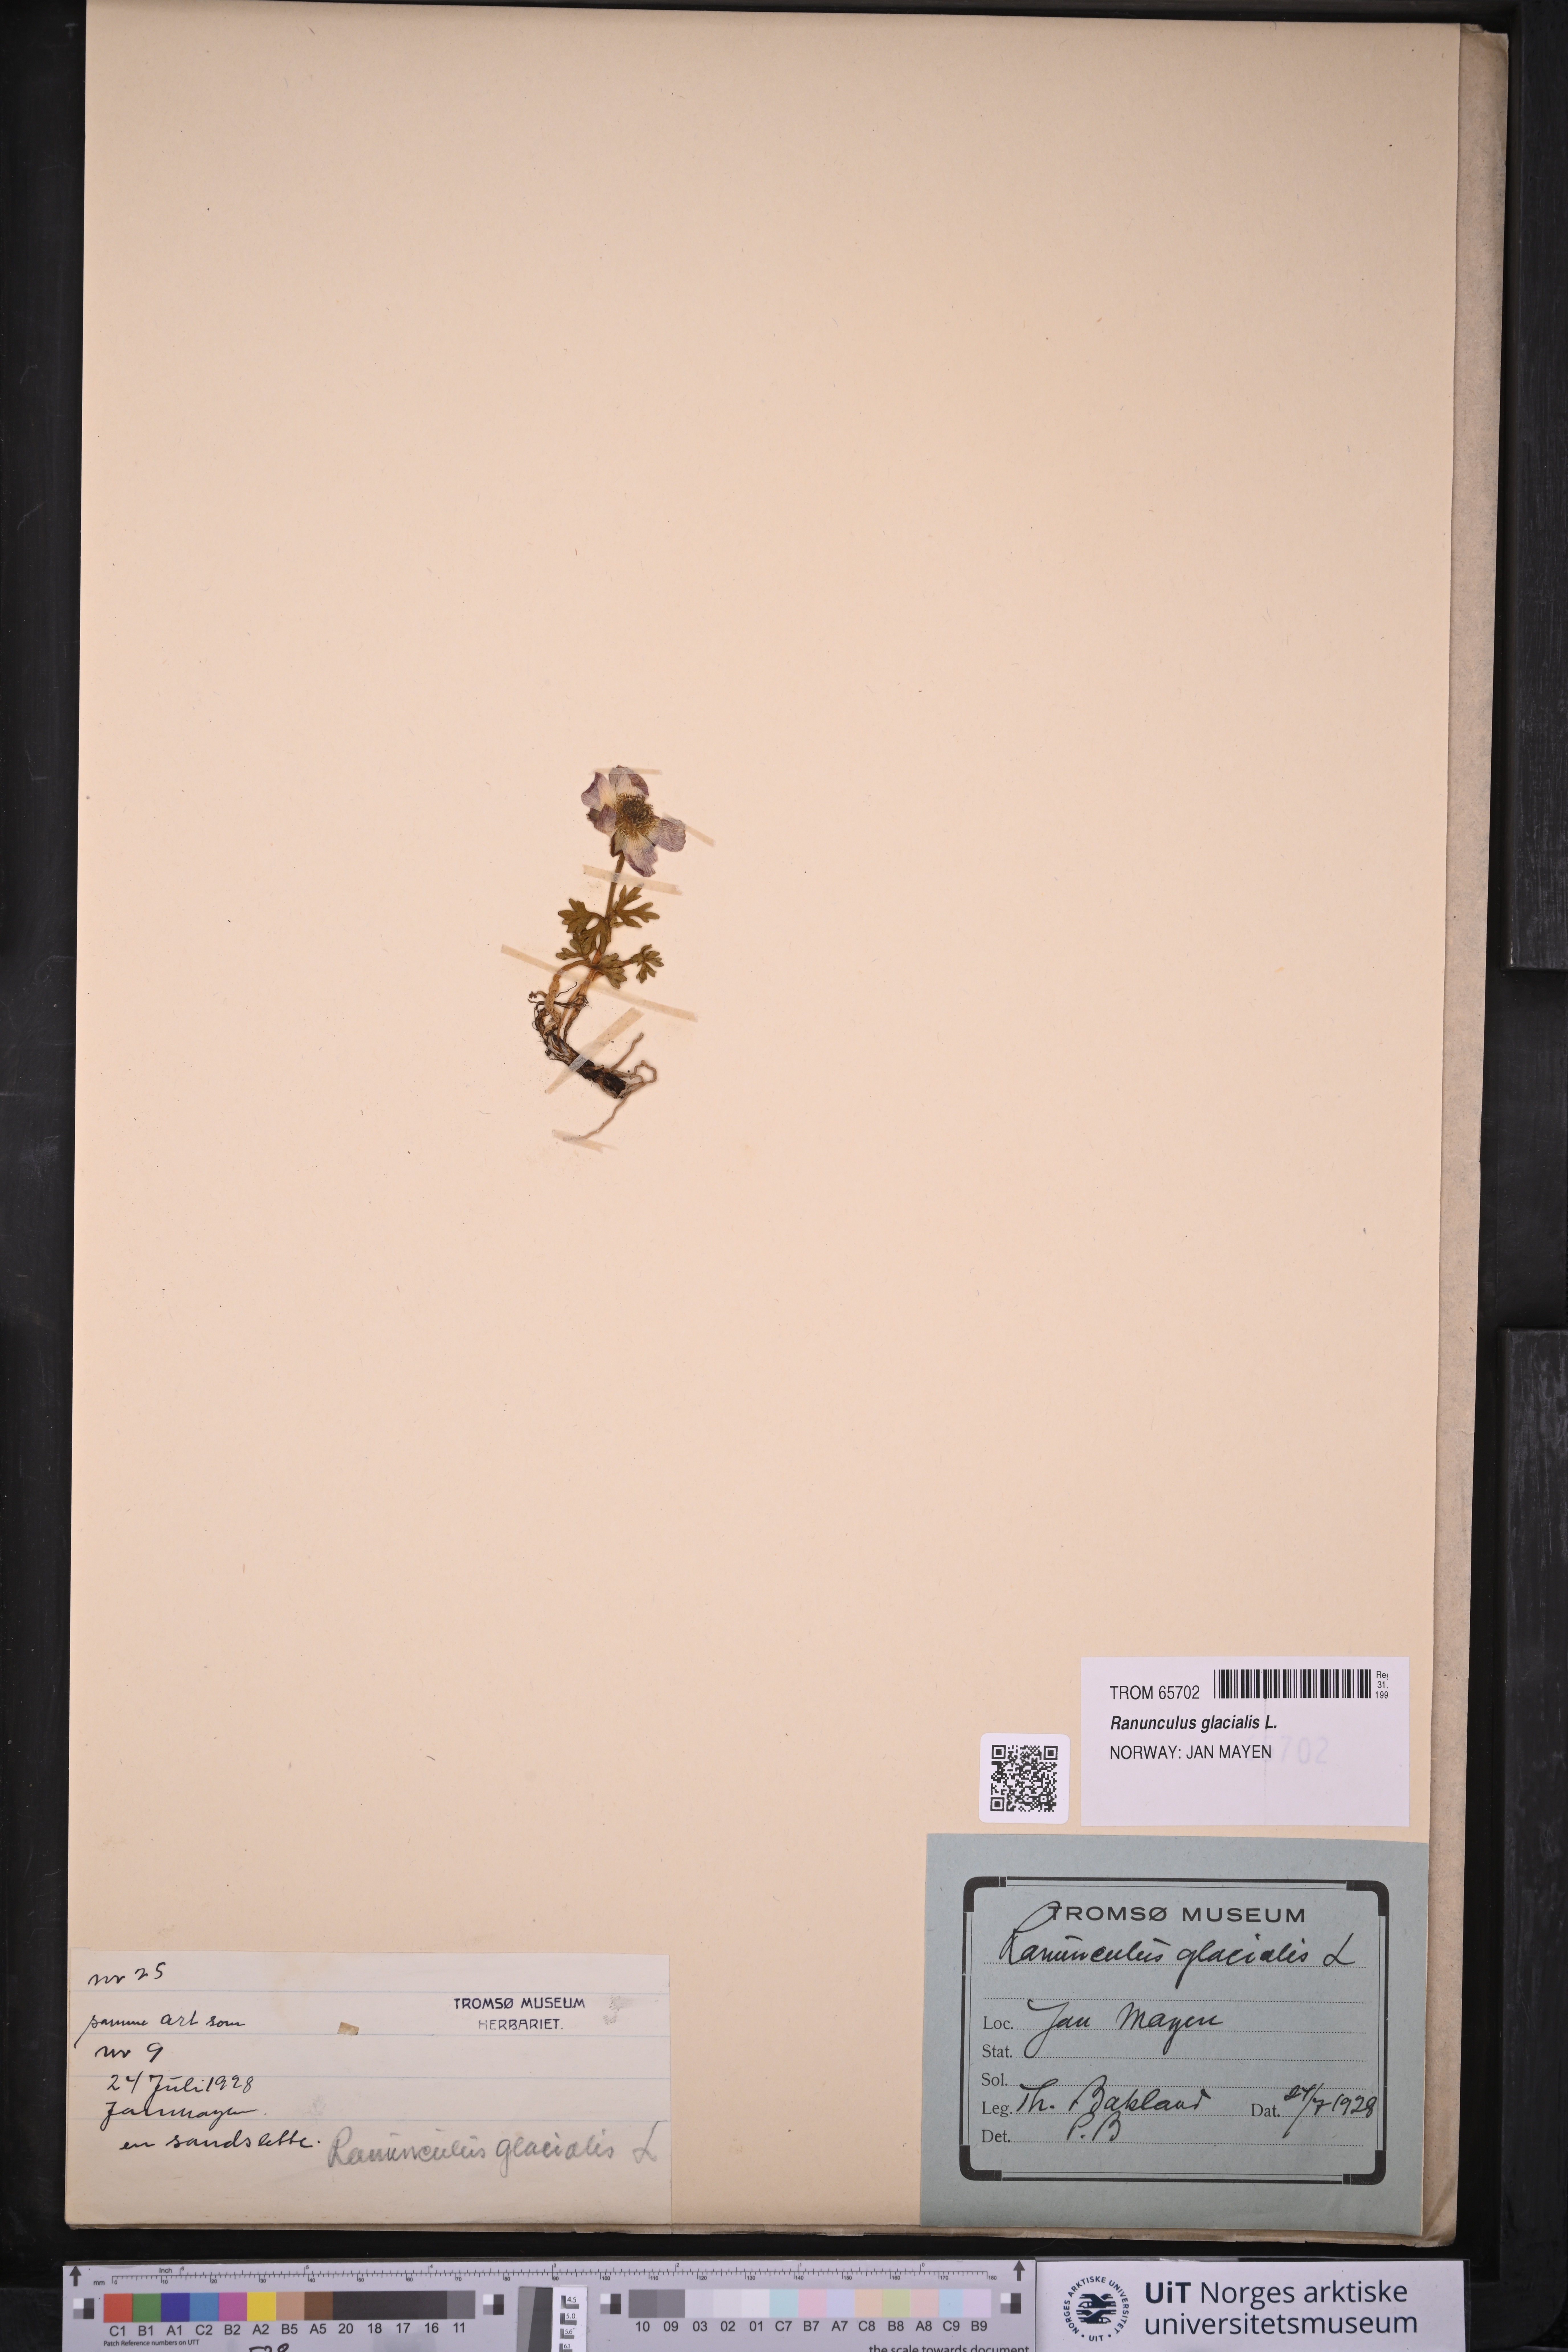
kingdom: Plantae
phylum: Tracheophyta
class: Magnoliopsida
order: Ranunculales
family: Ranunculaceae
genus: Ranunculus
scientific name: Ranunculus glacialis
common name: Glacier buttercup
